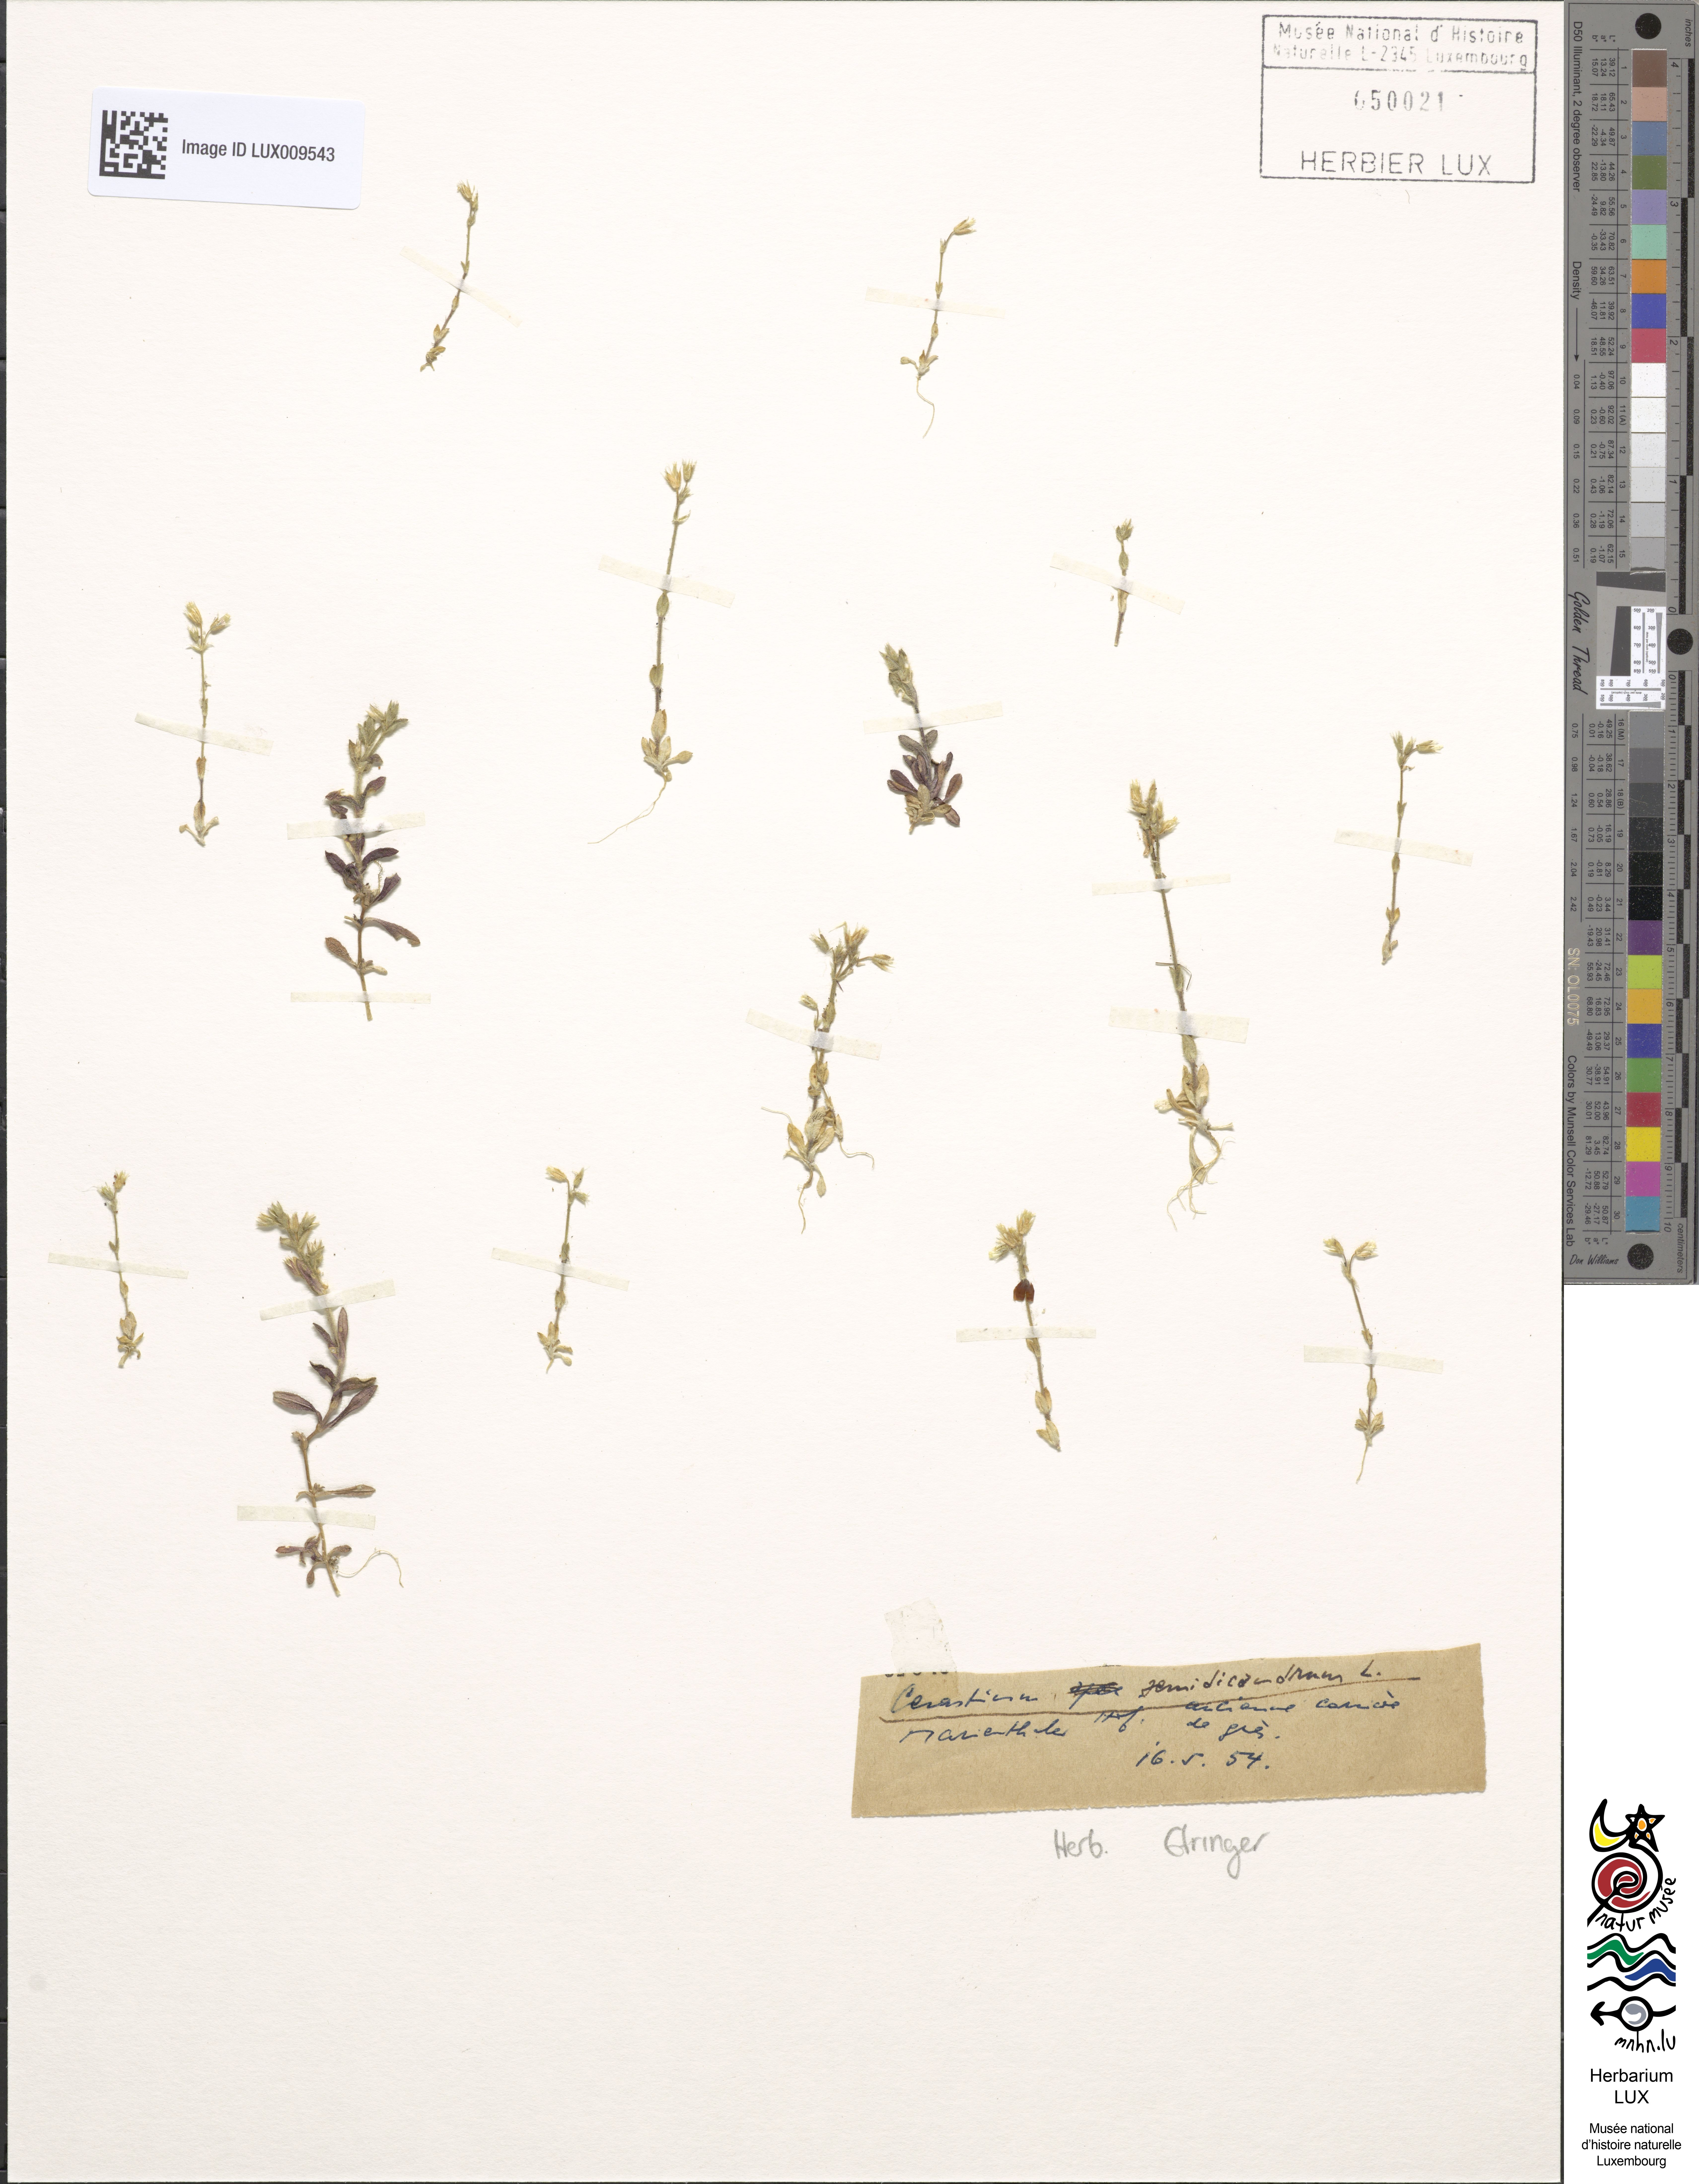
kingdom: Plantae
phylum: Tracheophyta
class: Magnoliopsida
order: Caryophyllales
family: Caryophyllaceae
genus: Cerastium
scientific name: Cerastium semidecandrum
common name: Little mouse-ear
